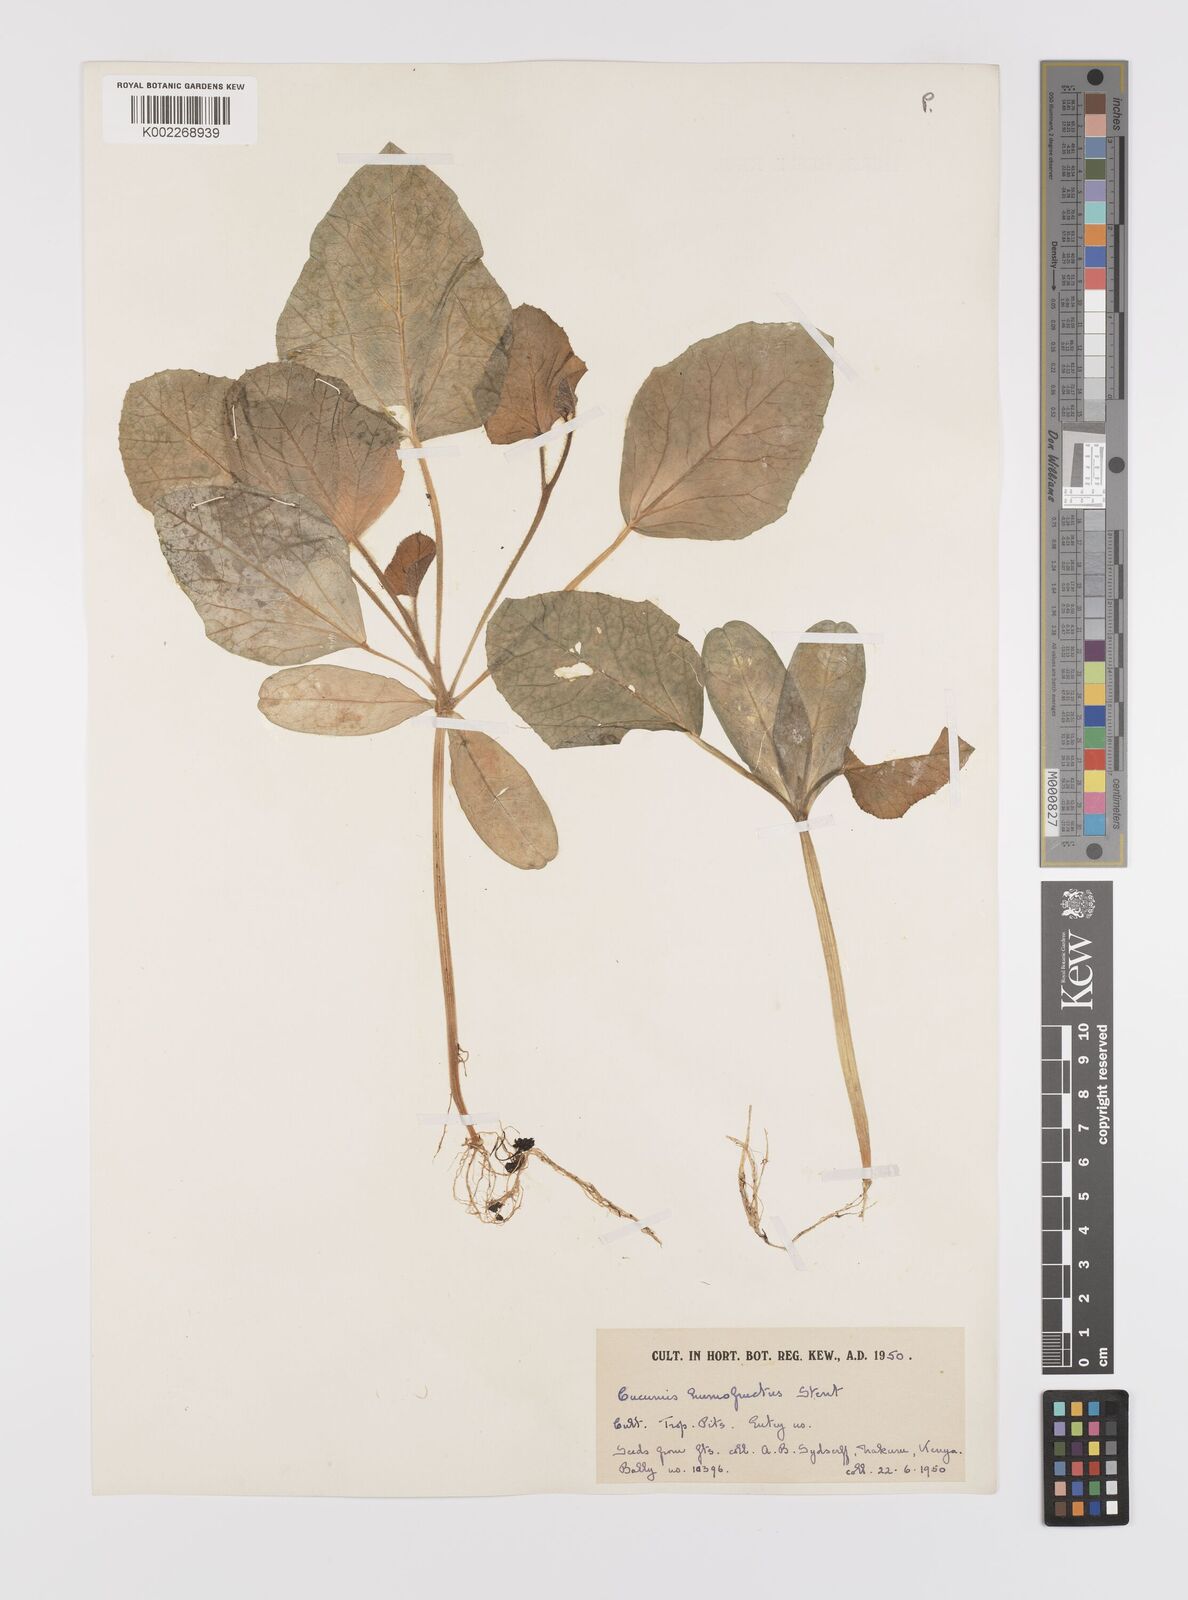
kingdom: Plantae
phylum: Tracheophyta
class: Magnoliopsida
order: Cucurbitales
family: Cucurbitaceae
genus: Cucumis
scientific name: Cucumis humofructus
